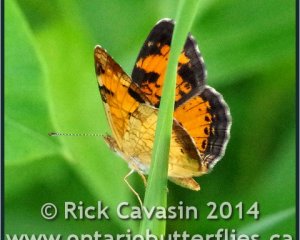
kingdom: Animalia
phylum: Arthropoda
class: Insecta
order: Lepidoptera
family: Nymphalidae
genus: Phyciodes
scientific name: Phyciodes tharos
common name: Northern Crescent
